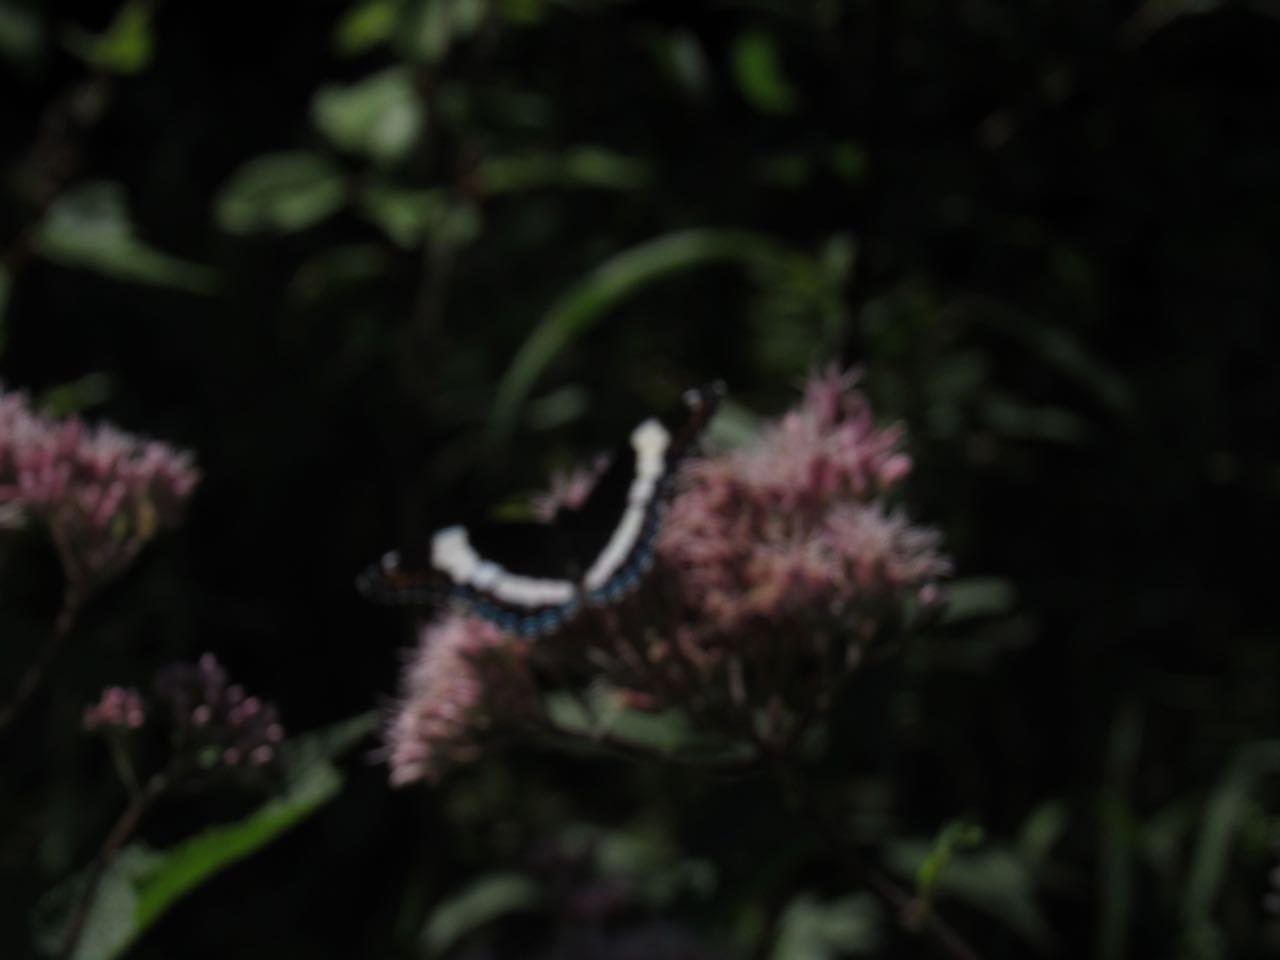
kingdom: Animalia
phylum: Arthropoda
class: Insecta
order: Lepidoptera
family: Nymphalidae
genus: Limenitis
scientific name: Limenitis arthemis
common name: Red-spotted Admiral
